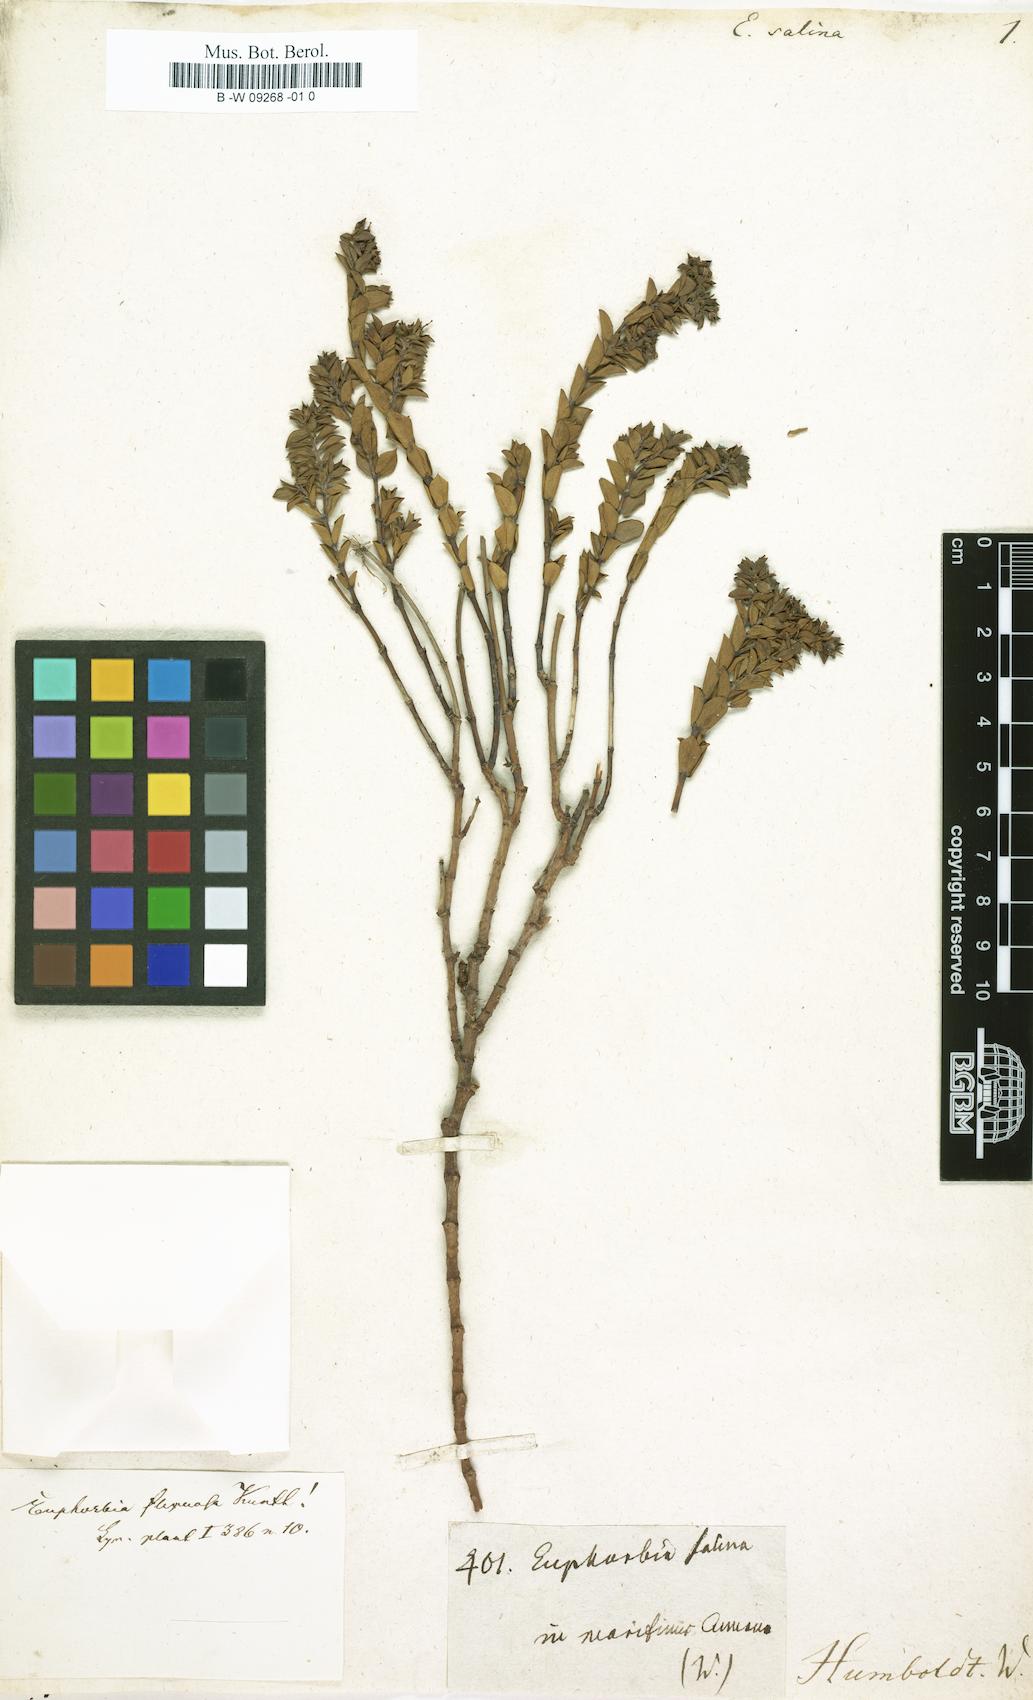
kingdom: Plantae
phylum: Tracheophyta
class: Magnoliopsida
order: Malpighiales
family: Euphorbiaceae
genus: Euphorbia
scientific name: Euphorbia mesembryanthemifolia
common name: Coastal beach sandmat
